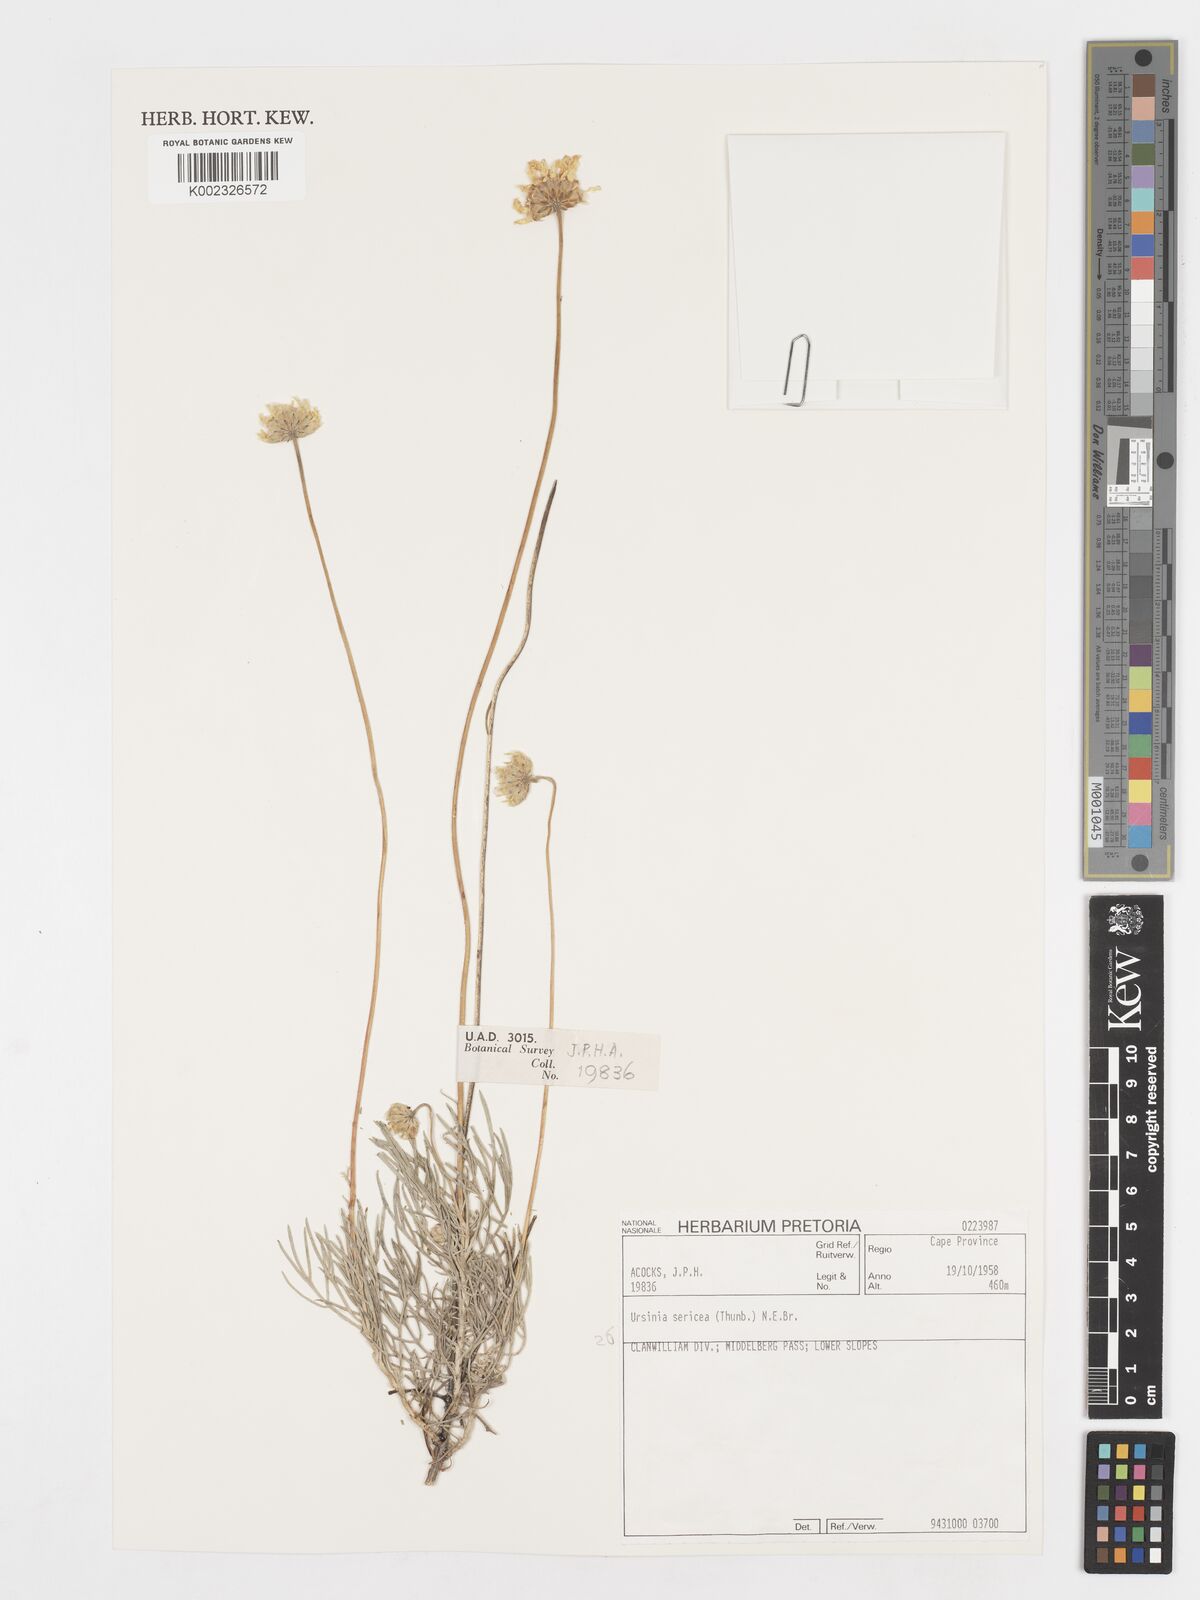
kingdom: Plantae
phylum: Tracheophyta
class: Magnoliopsida
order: Asterales
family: Asteraceae
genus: Ursinia
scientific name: Ursinia sericea
